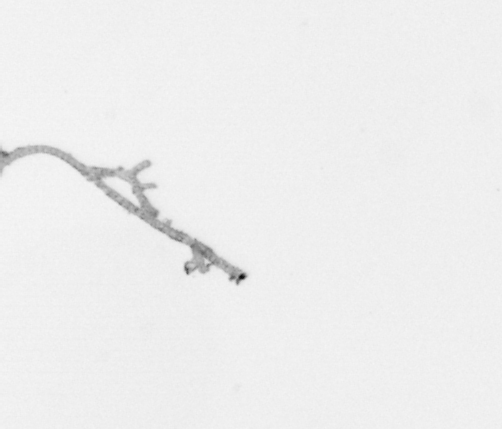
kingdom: Chromista
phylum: Ochrophyta
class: Bacillariophyceae
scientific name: Bacillariophyceae
